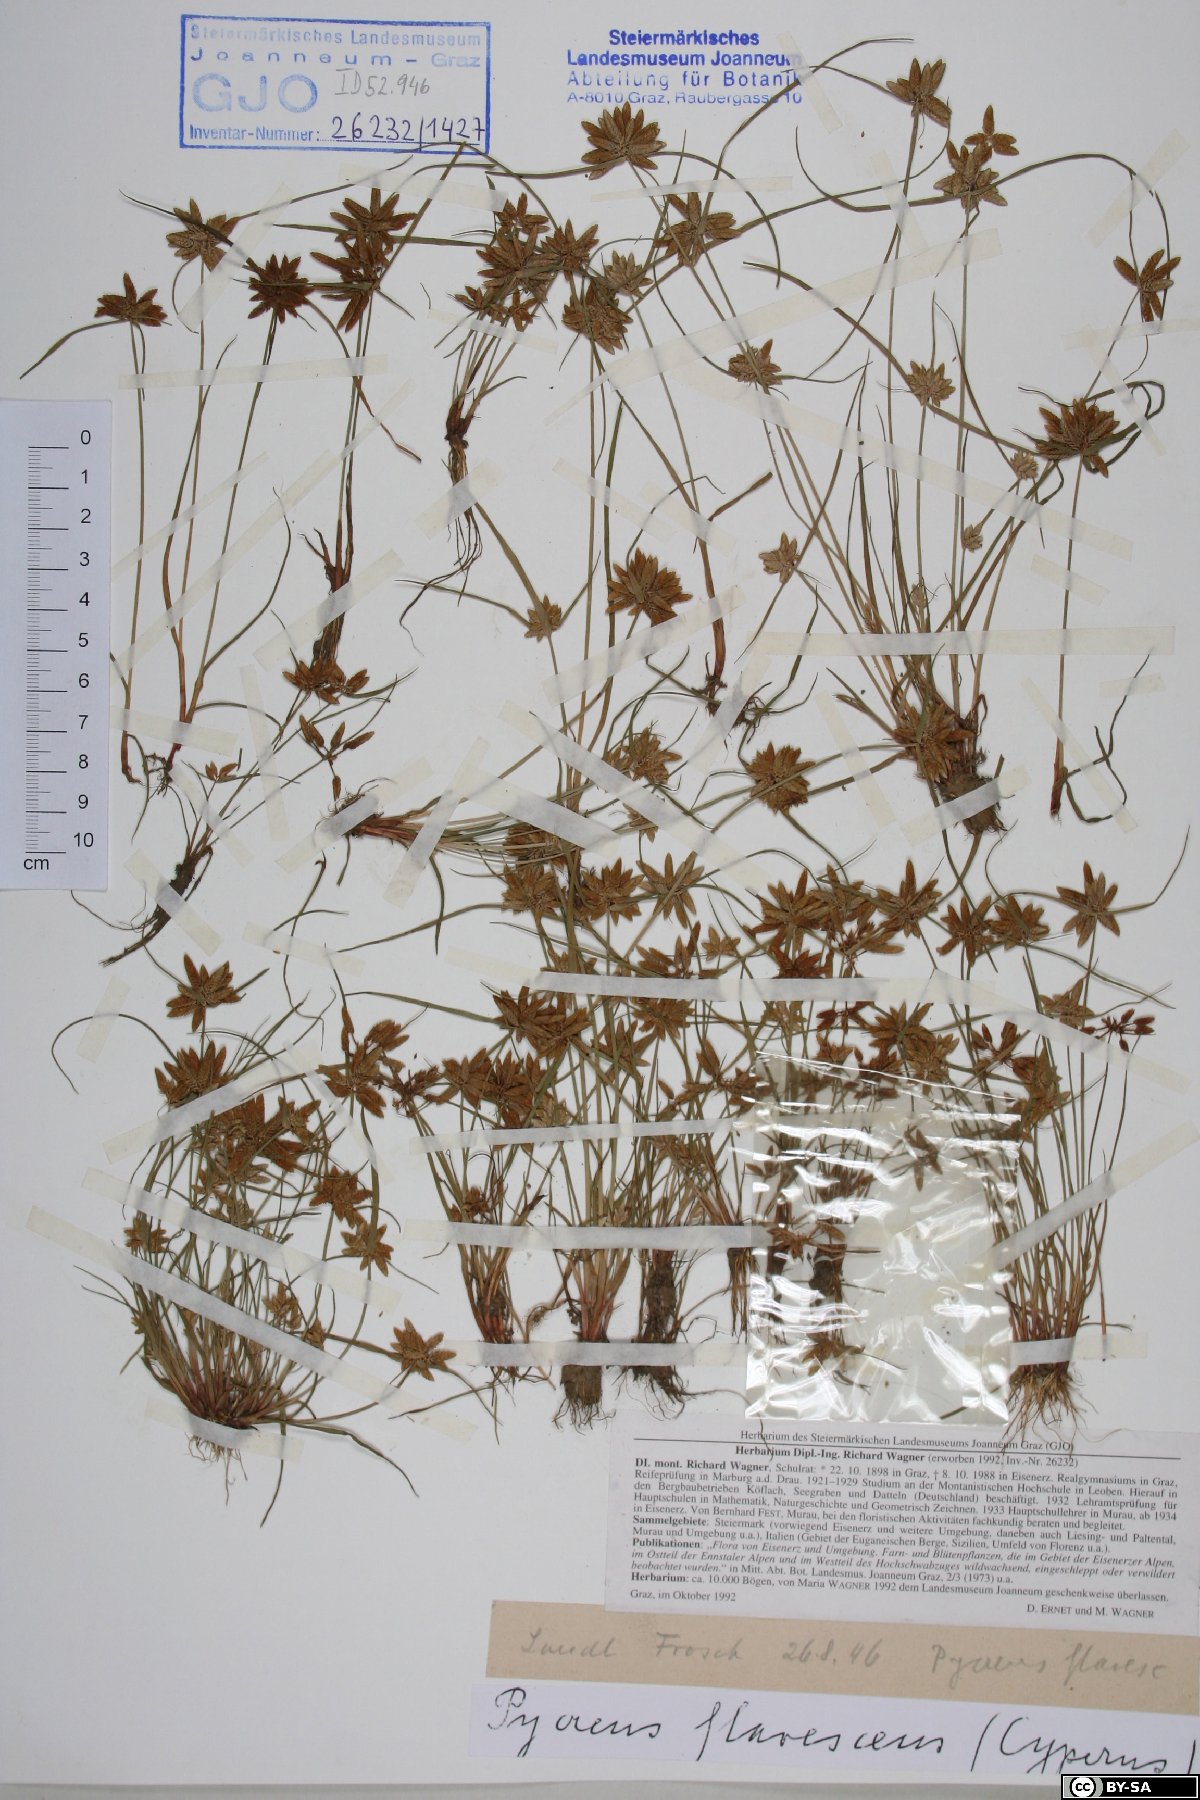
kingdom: Plantae
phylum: Tracheophyta
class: Liliopsida
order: Poales
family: Cyperaceae
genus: Cyperus
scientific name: Cyperus flavescens
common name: Yellow galingale
